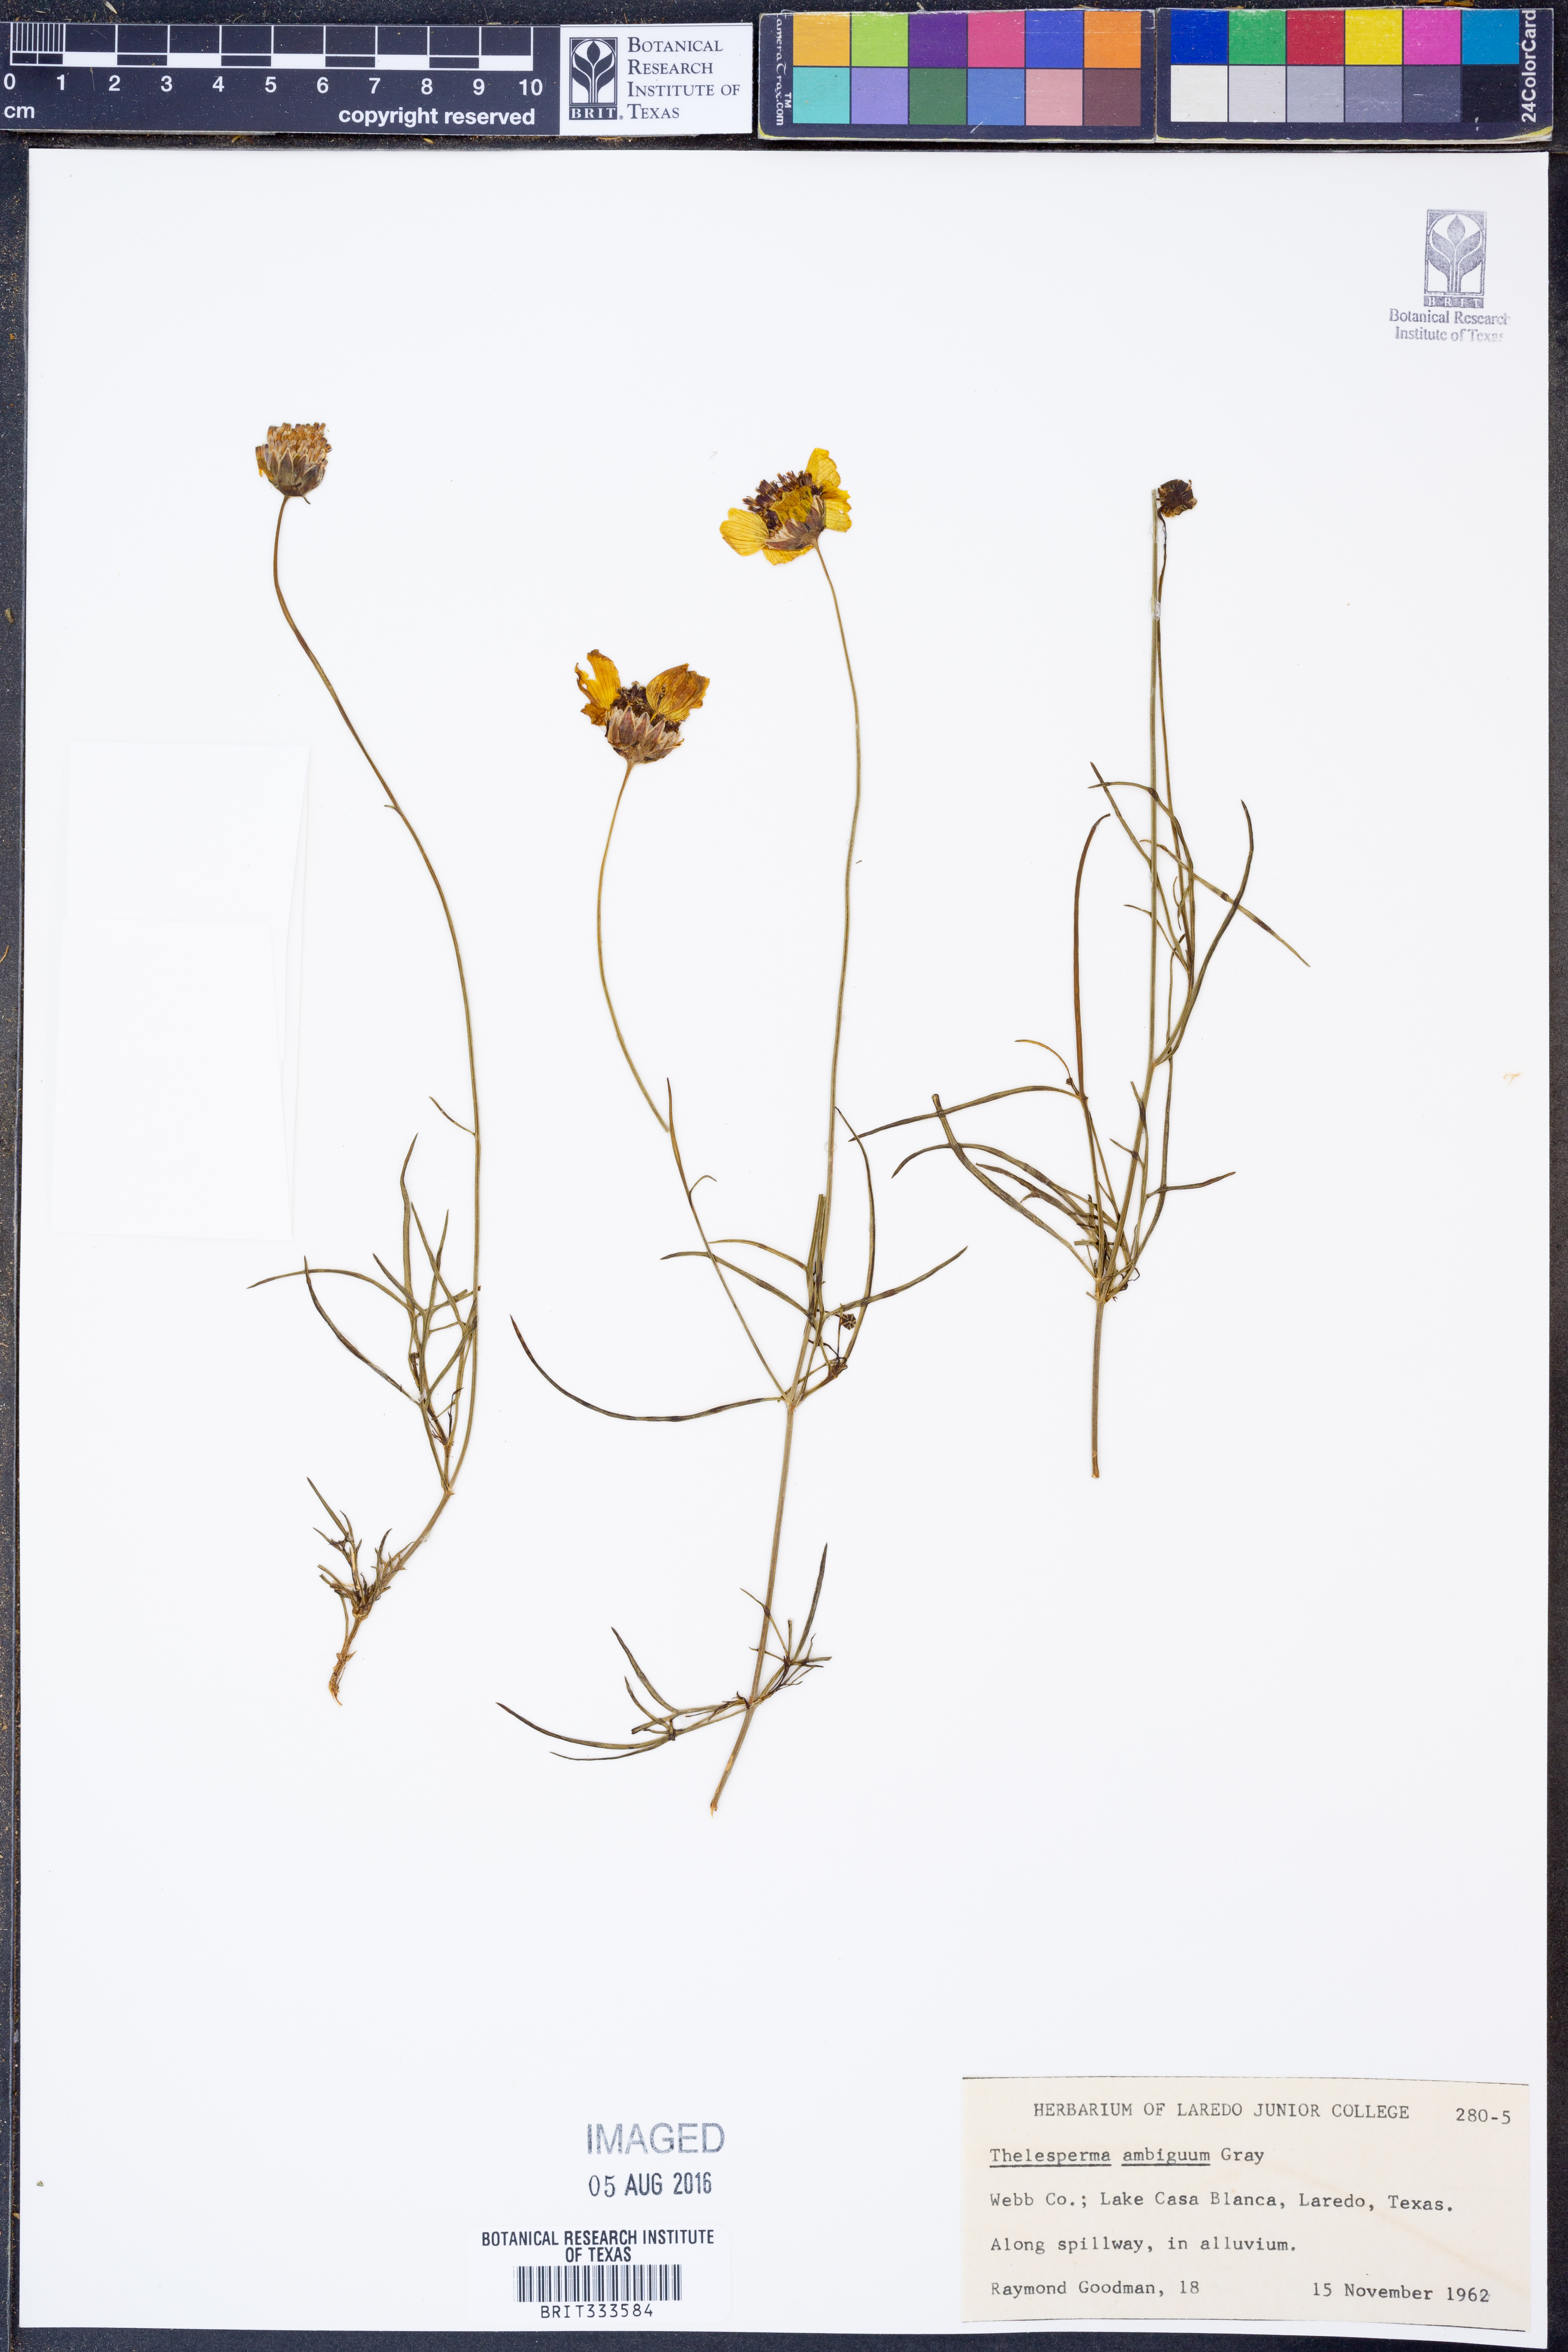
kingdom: Plantae
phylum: Tracheophyta
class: Magnoliopsida
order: Asterales
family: Asteraceae
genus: Thelesperma
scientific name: Thelesperma ambiguum
